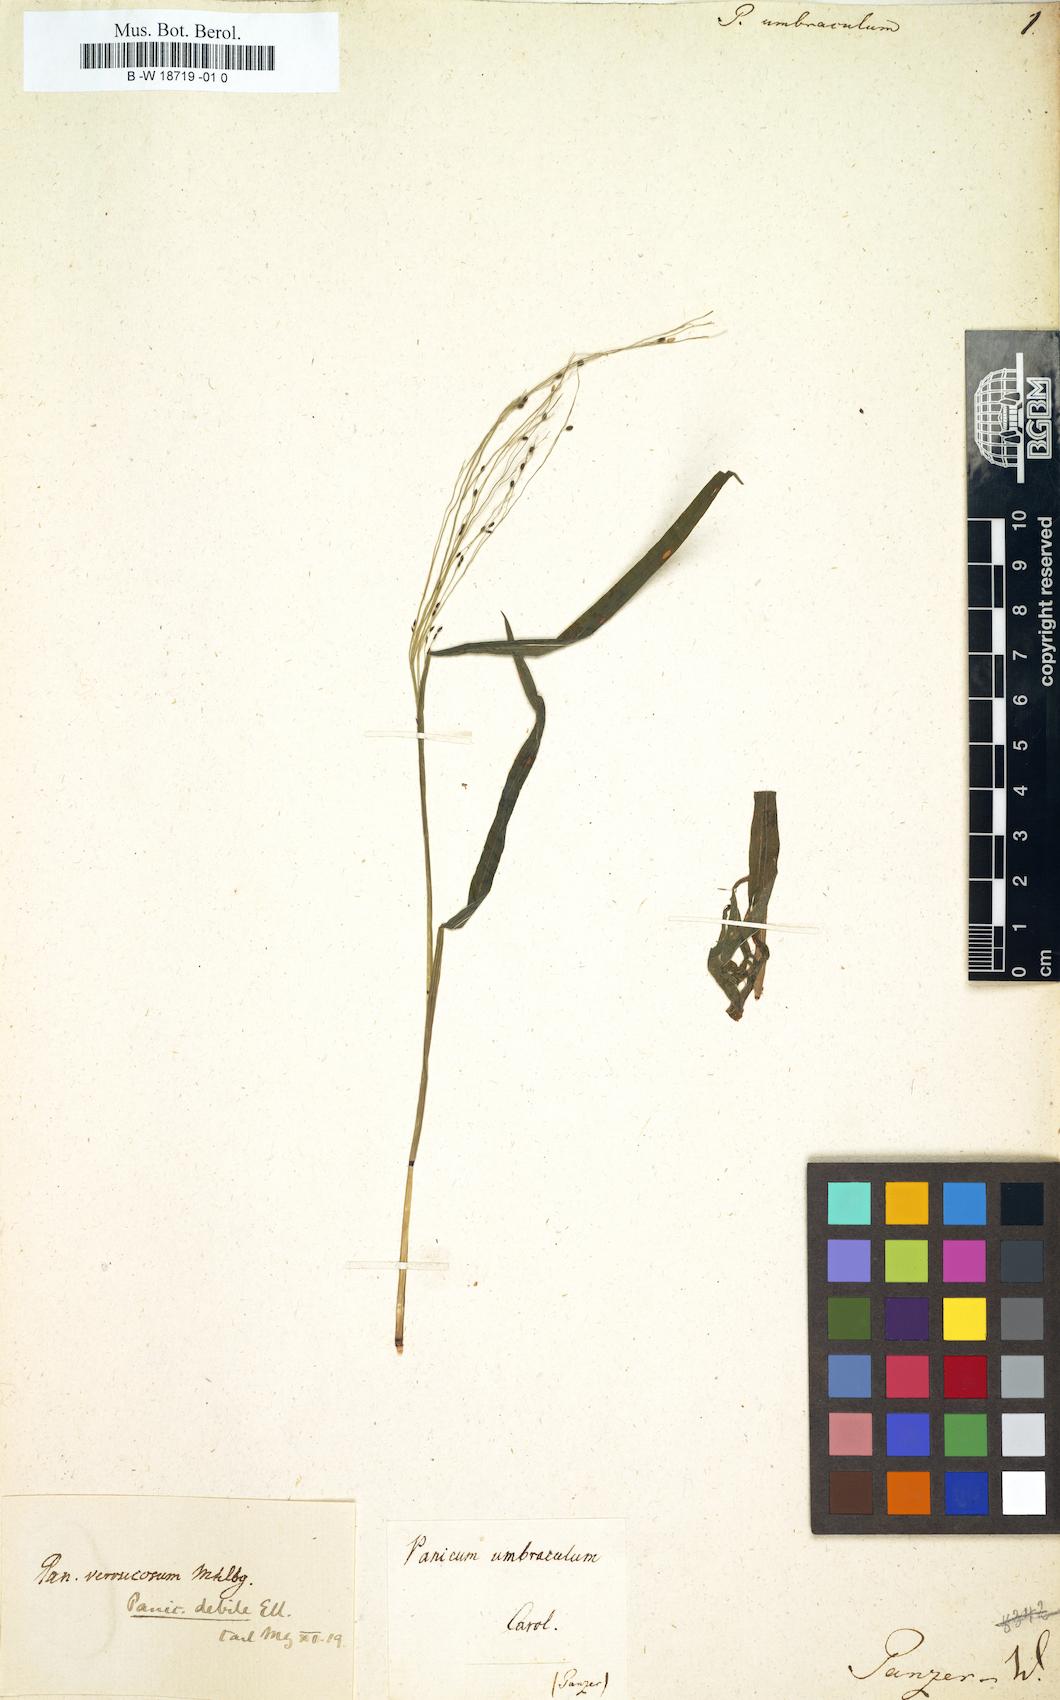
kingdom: Plantae
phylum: Tracheophyta
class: Liliopsida
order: Poales
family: Poaceae
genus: Kellochloa
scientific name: Kellochloa verrucosa
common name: Warty panic grass
